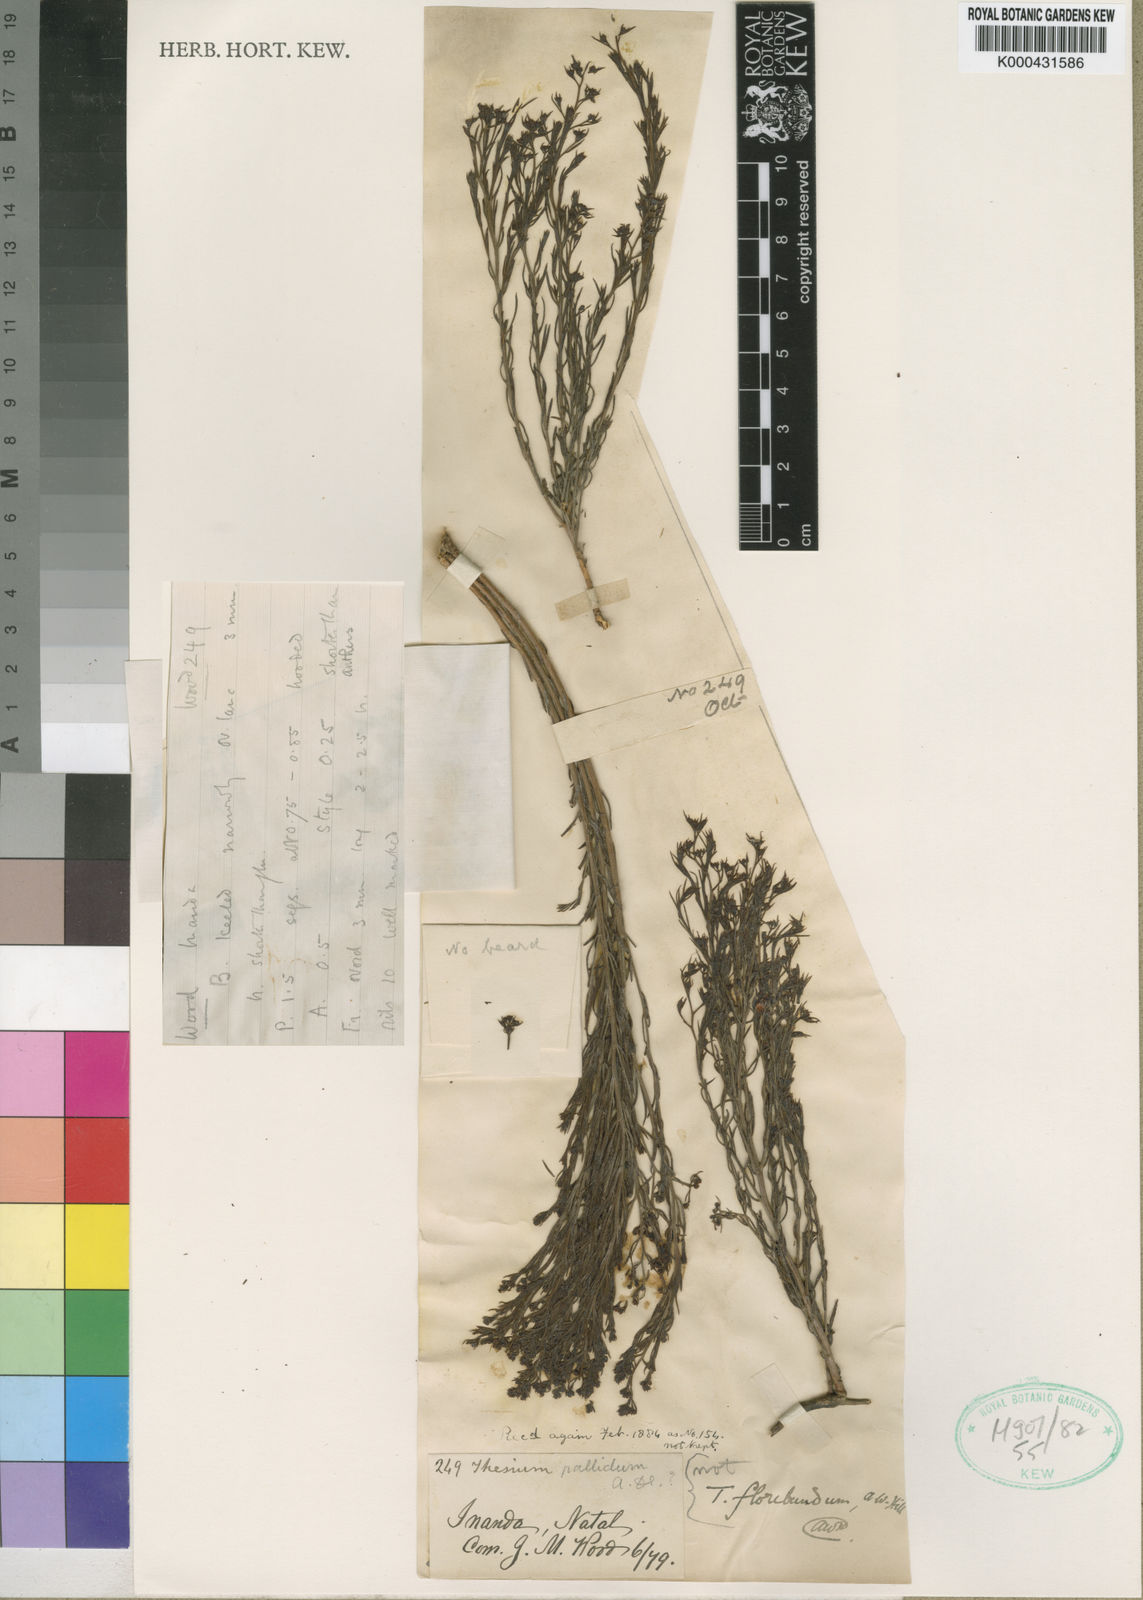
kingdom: Plantae
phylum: Tracheophyta
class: Magnoliopsida
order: Santalales
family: Thesiaceae
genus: Thesium
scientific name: Thesium pallidum
